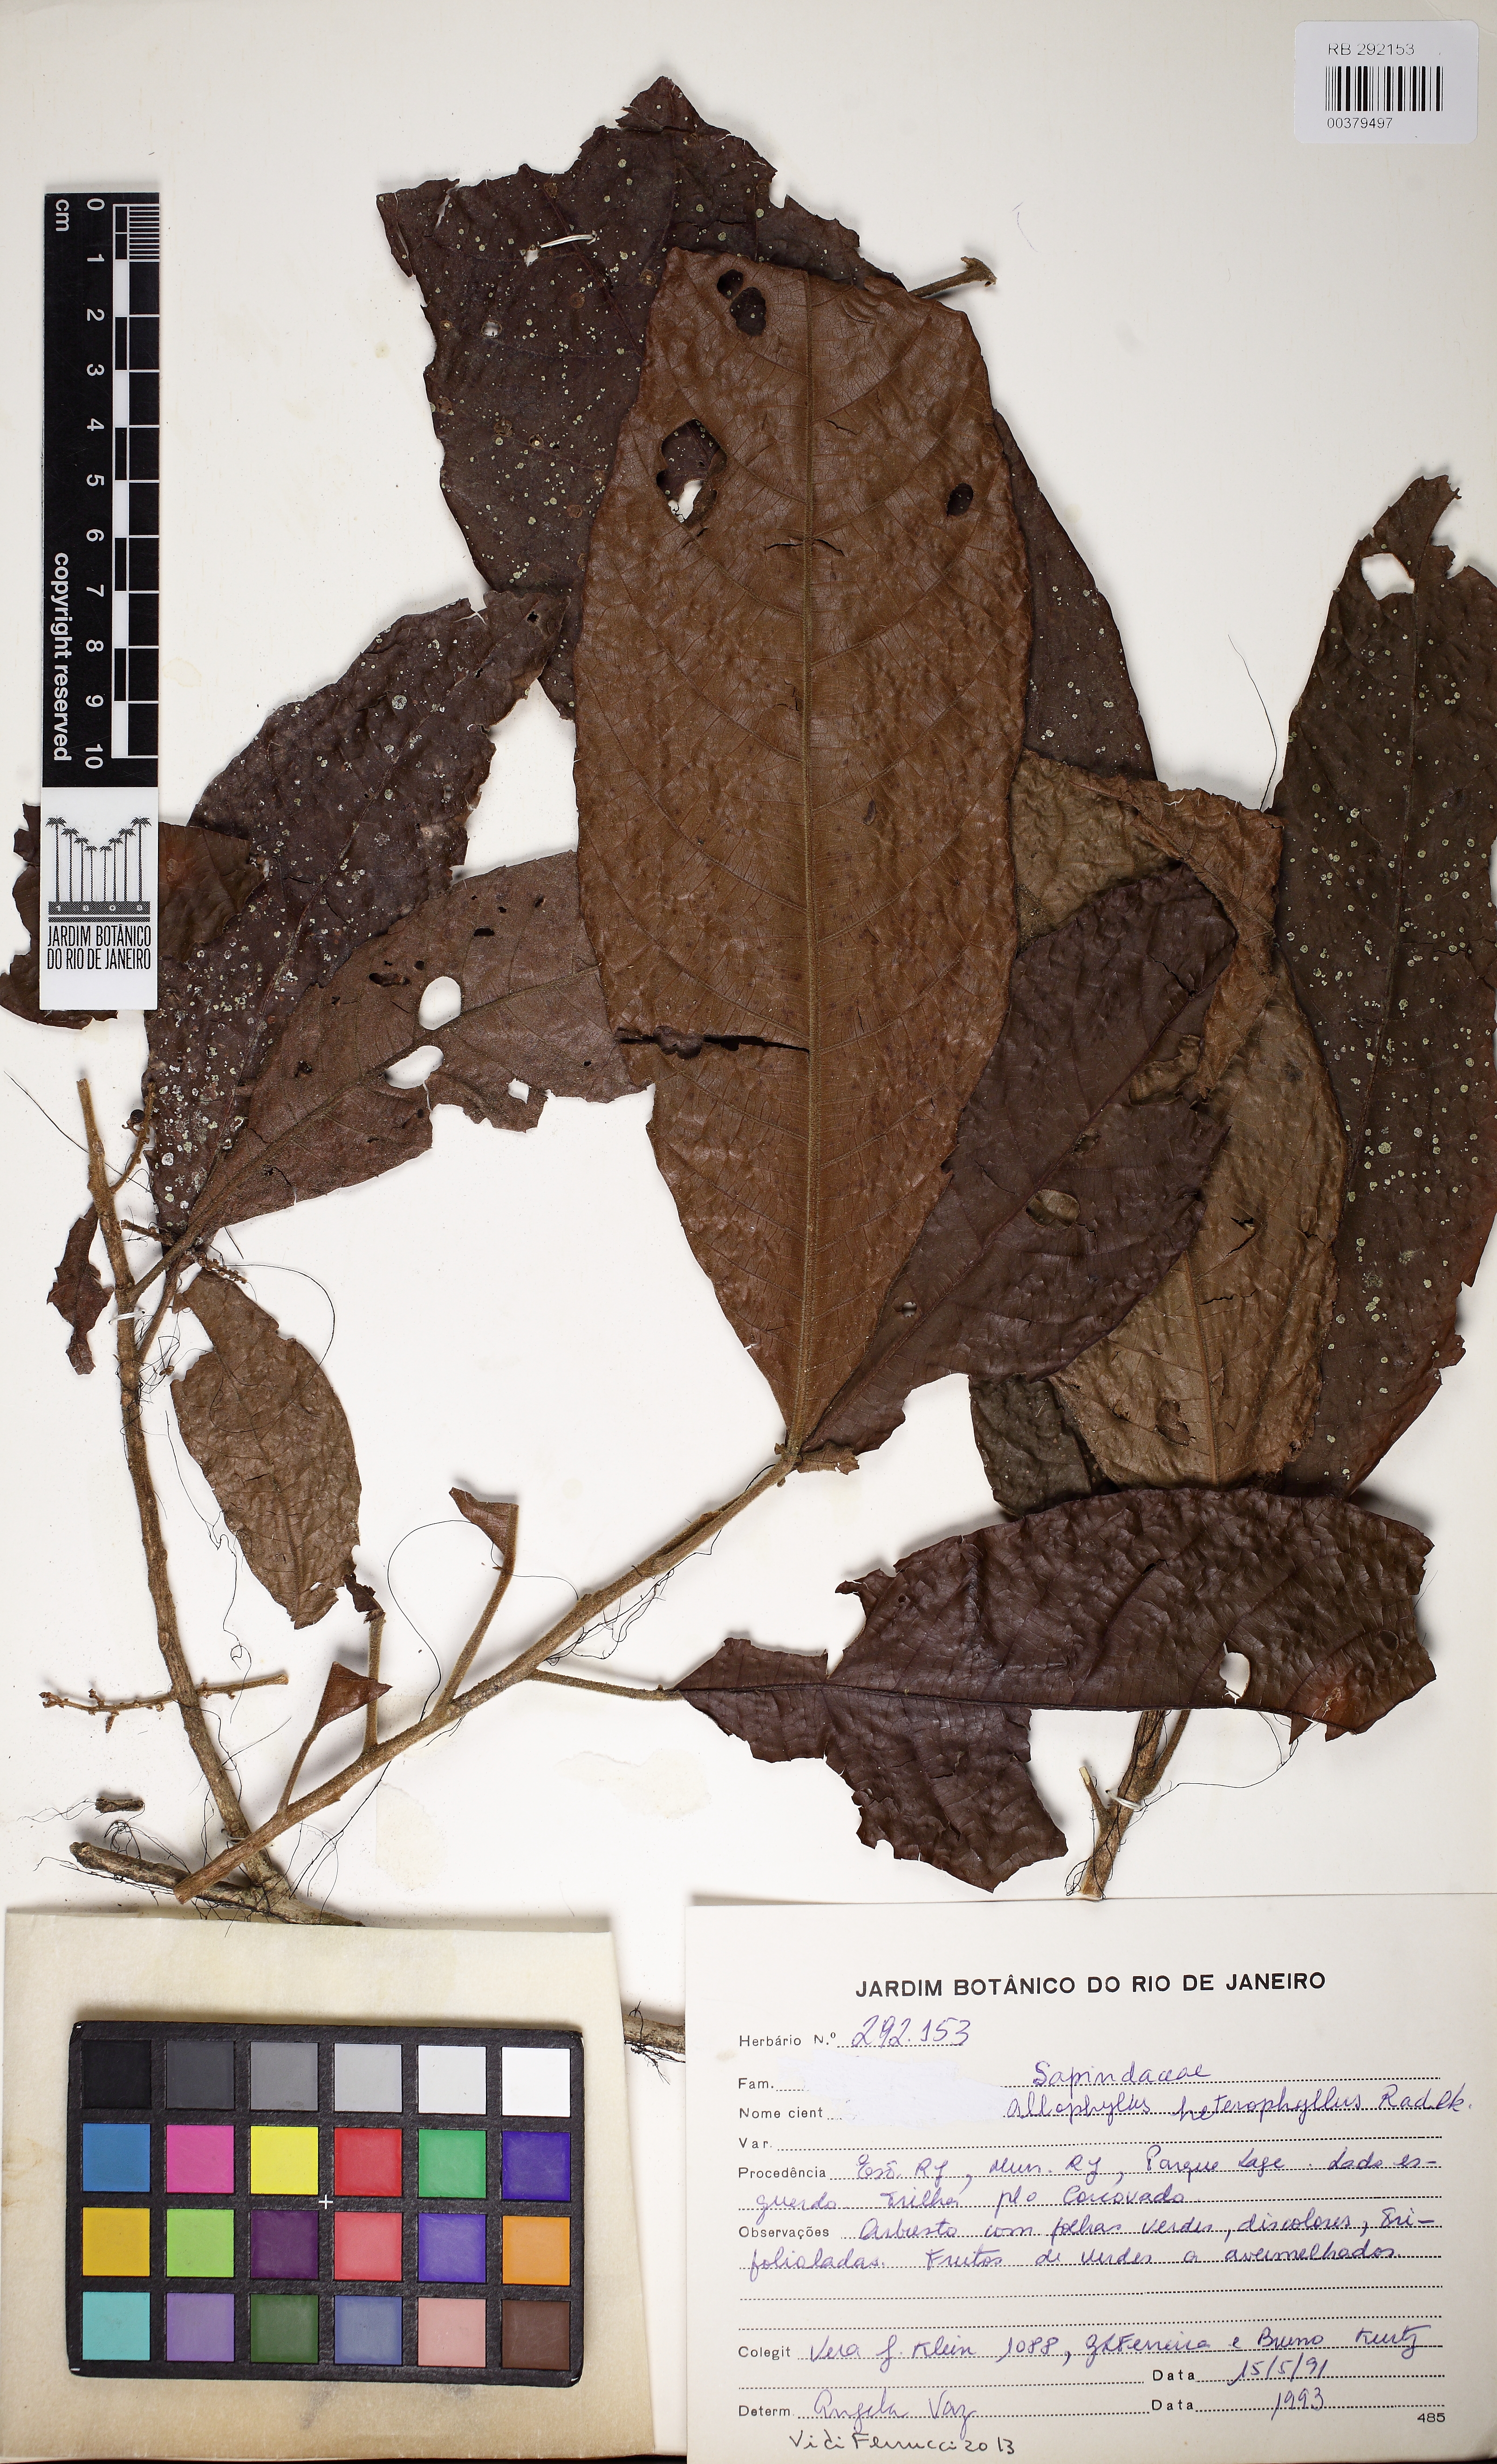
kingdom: Plantae
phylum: Tracheophyta
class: Magnoliopsida
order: Sapindales
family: Sapindaceae
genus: Allophylus
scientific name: Allophylus heterophyllus
